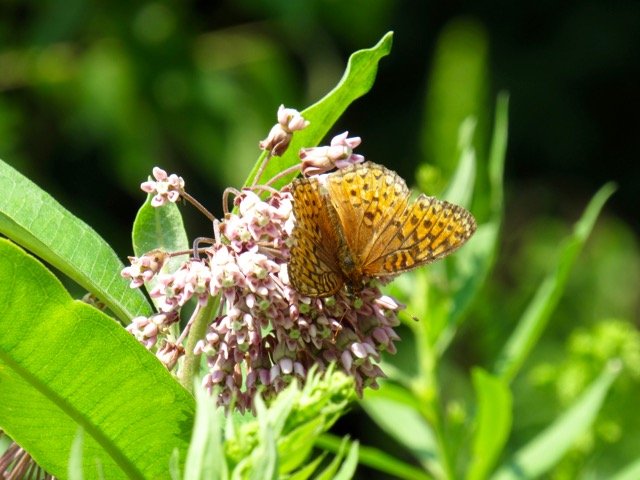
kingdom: Animalia
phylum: Arthropoda
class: Insecta
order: Lepidoptera
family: Nymphalidae
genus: Speyeria
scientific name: Speyeria atlantis
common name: Atlantis Fritillary
